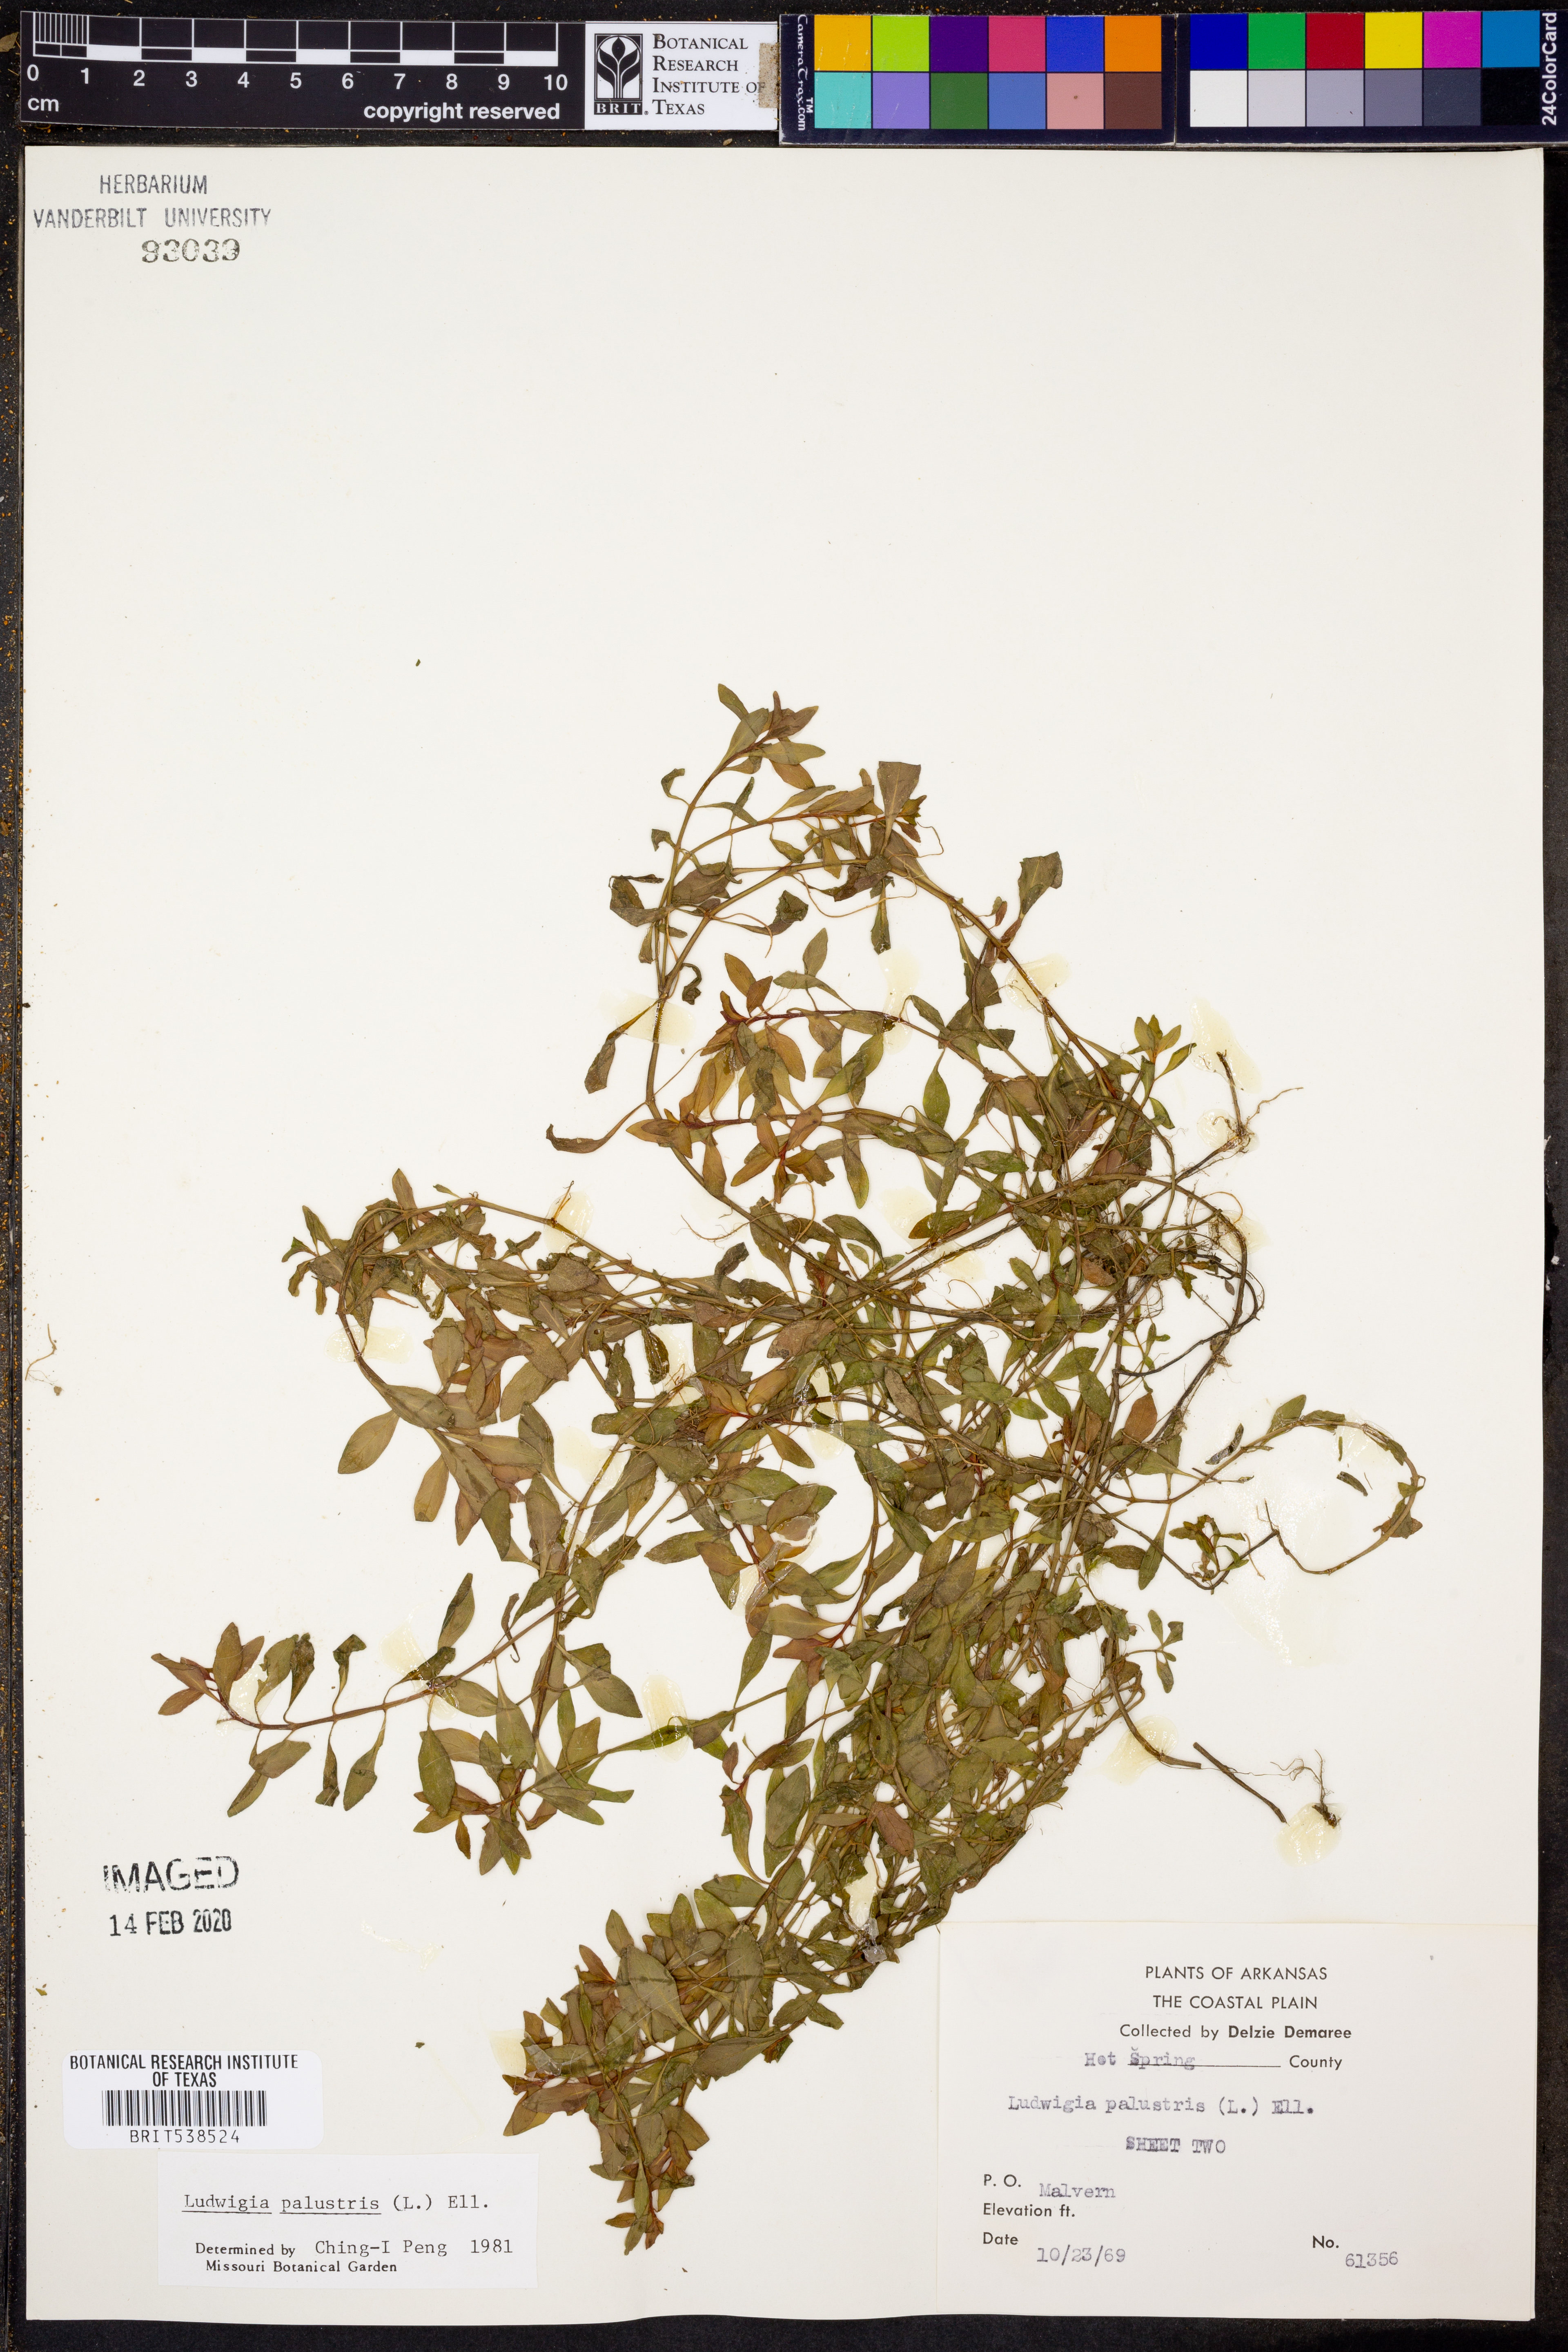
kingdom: Plantae
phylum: Tracheophyta
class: Magnoliopsida
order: Myrtales
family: Onagraceae
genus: Ludwigia
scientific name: Ludwigia palustris
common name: Hampshire-purslane
